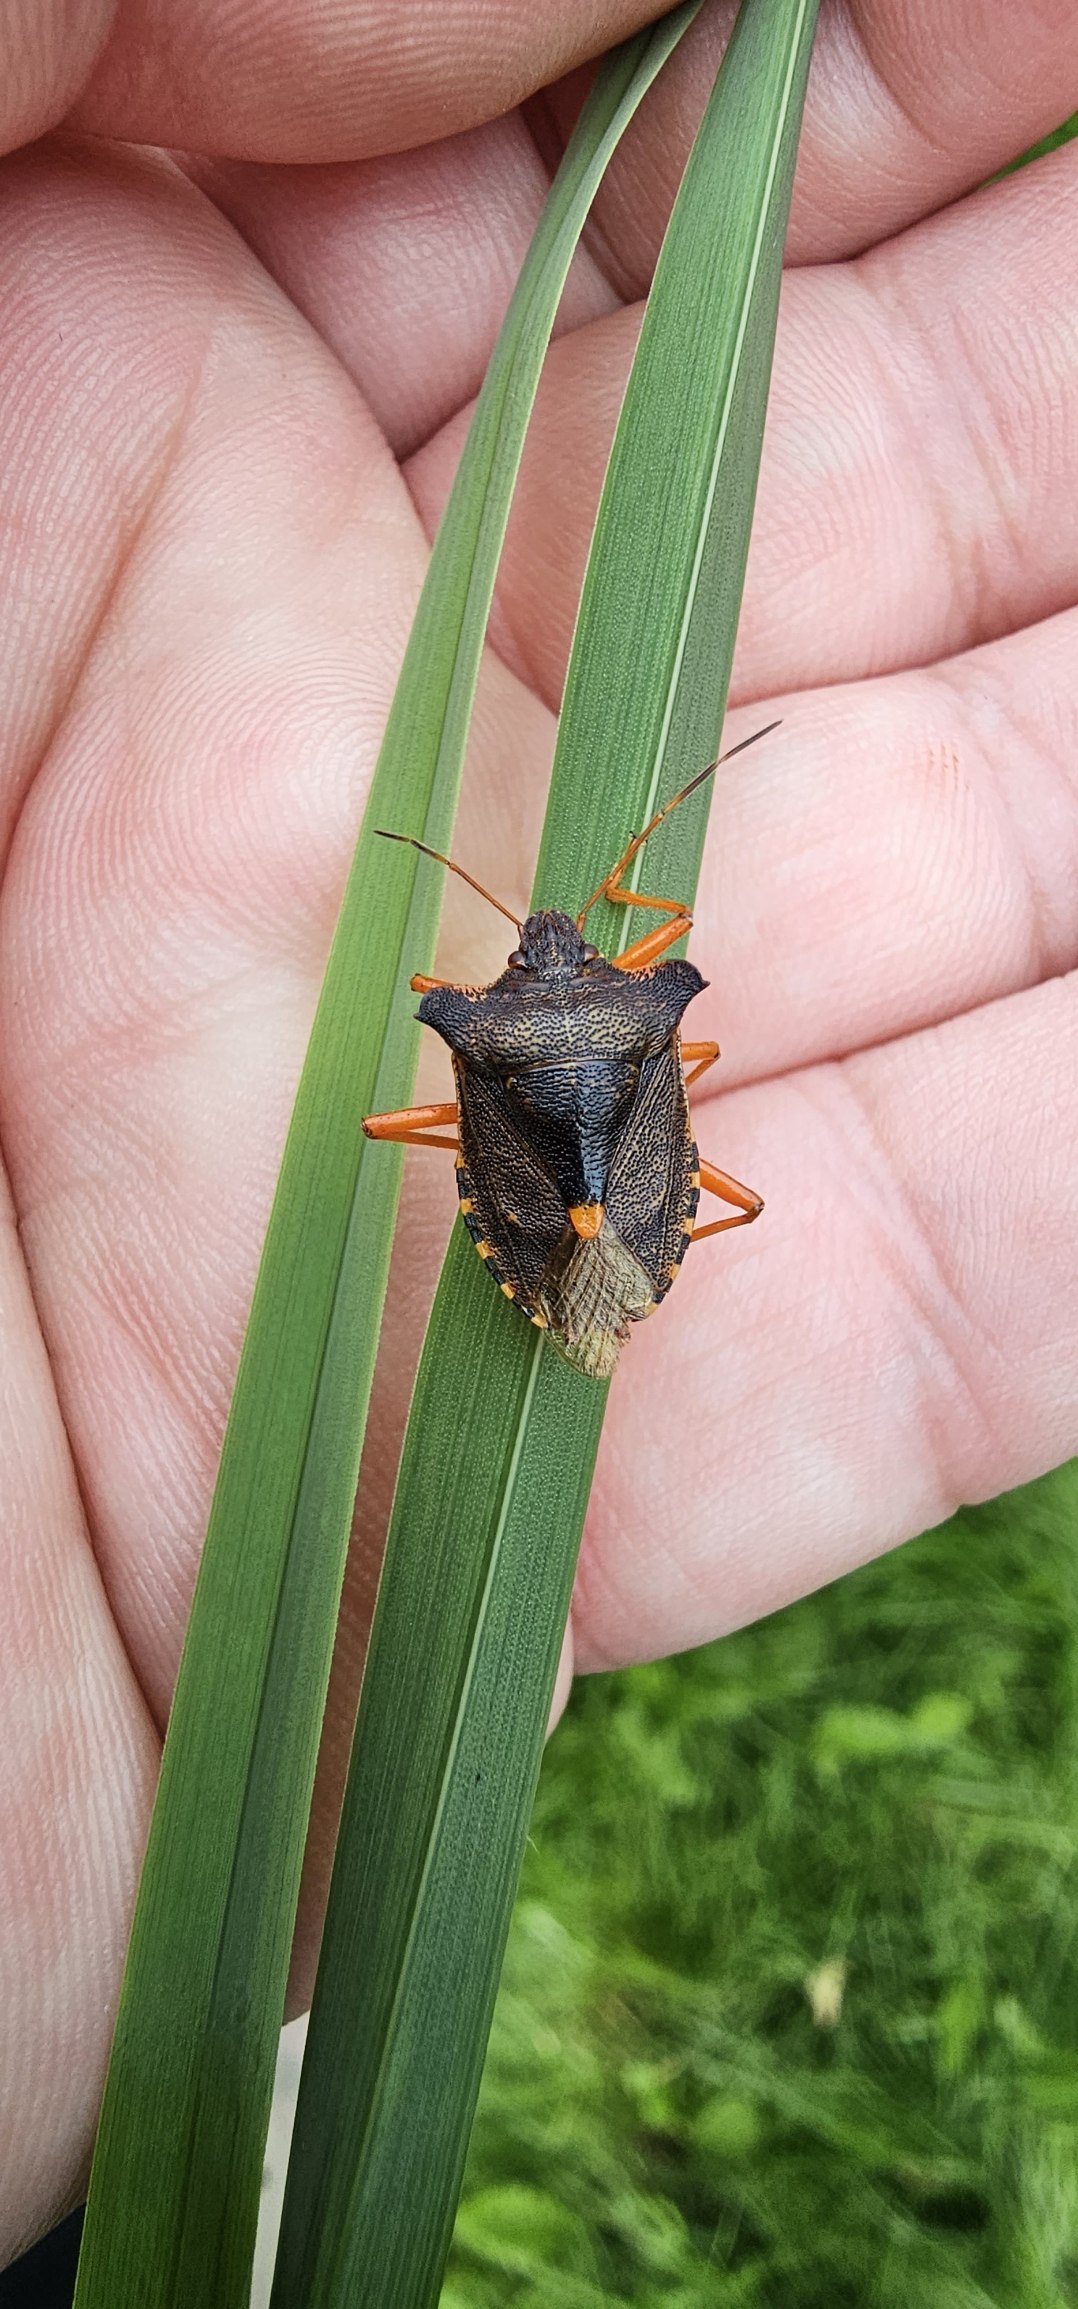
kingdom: Animalia
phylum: Arthropoda
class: Insecta
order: Hemiptera
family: Pentatomidae
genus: Pentatoma
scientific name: Pentatoma rufipes
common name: Rødbenet bredtæge
